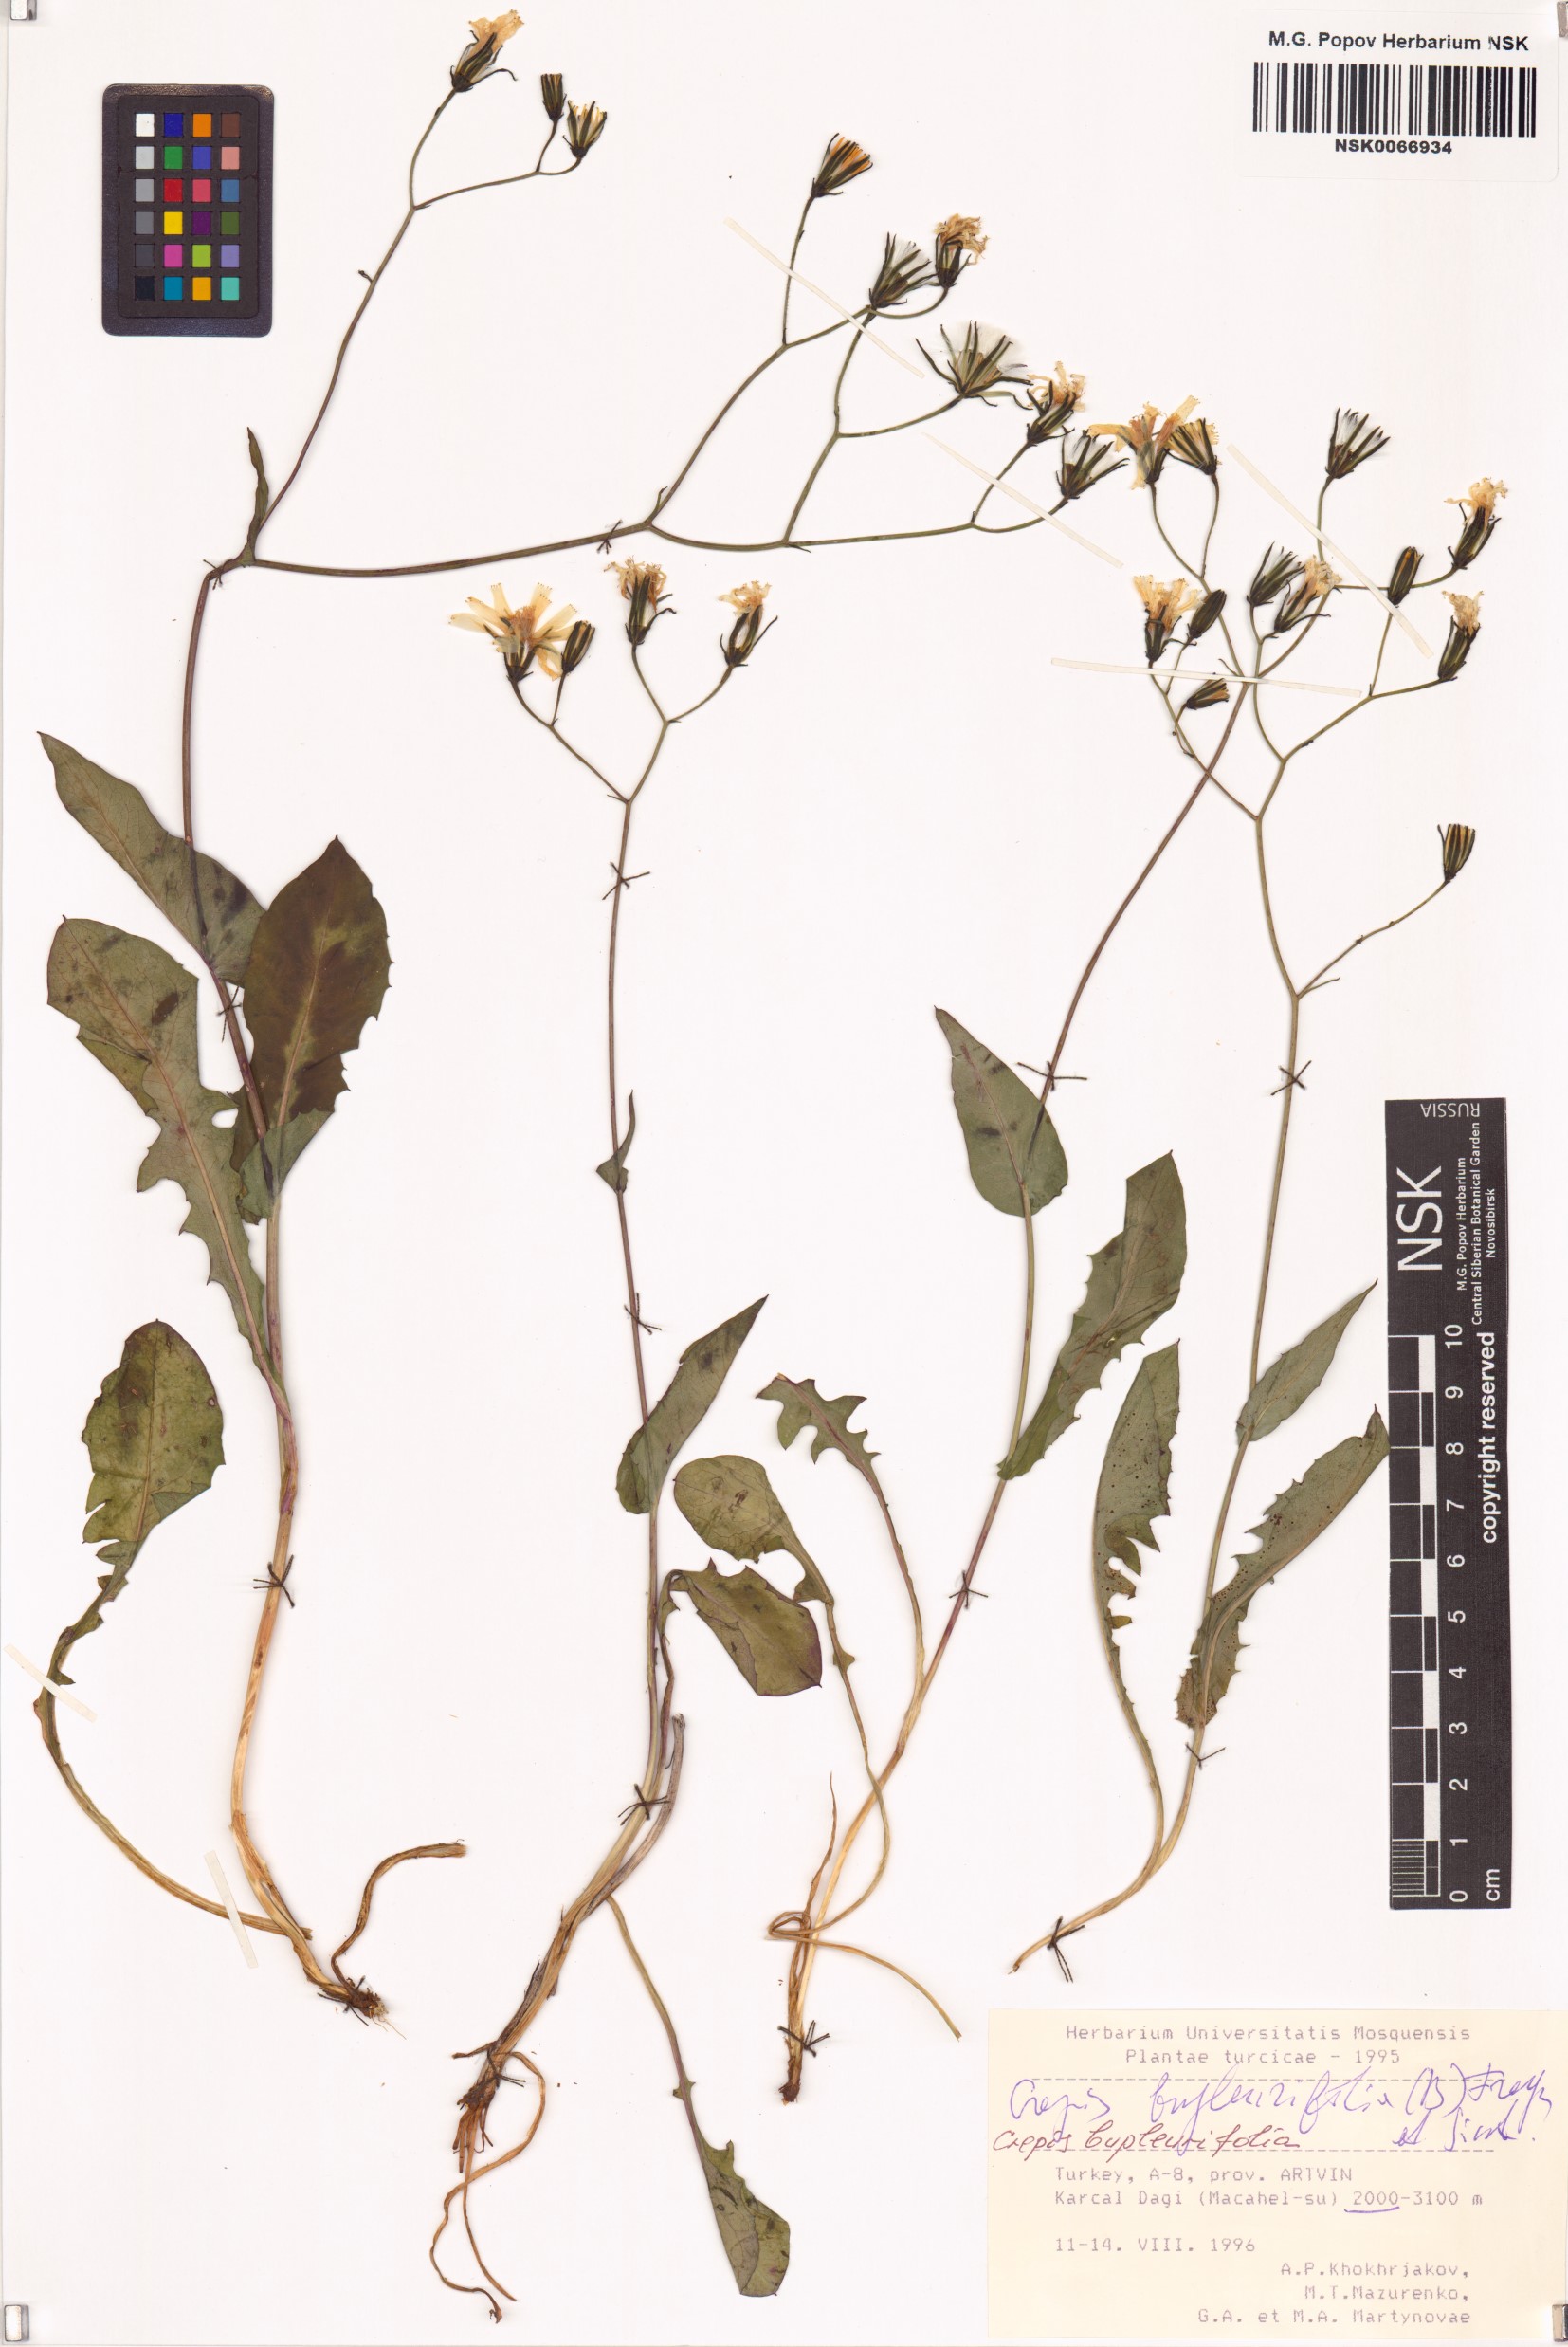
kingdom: Plantae
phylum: Tracheophyta
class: Magnoliopsida
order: Asterales
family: Asteraceae
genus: Crepis
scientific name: Crepis bupleurifolia
